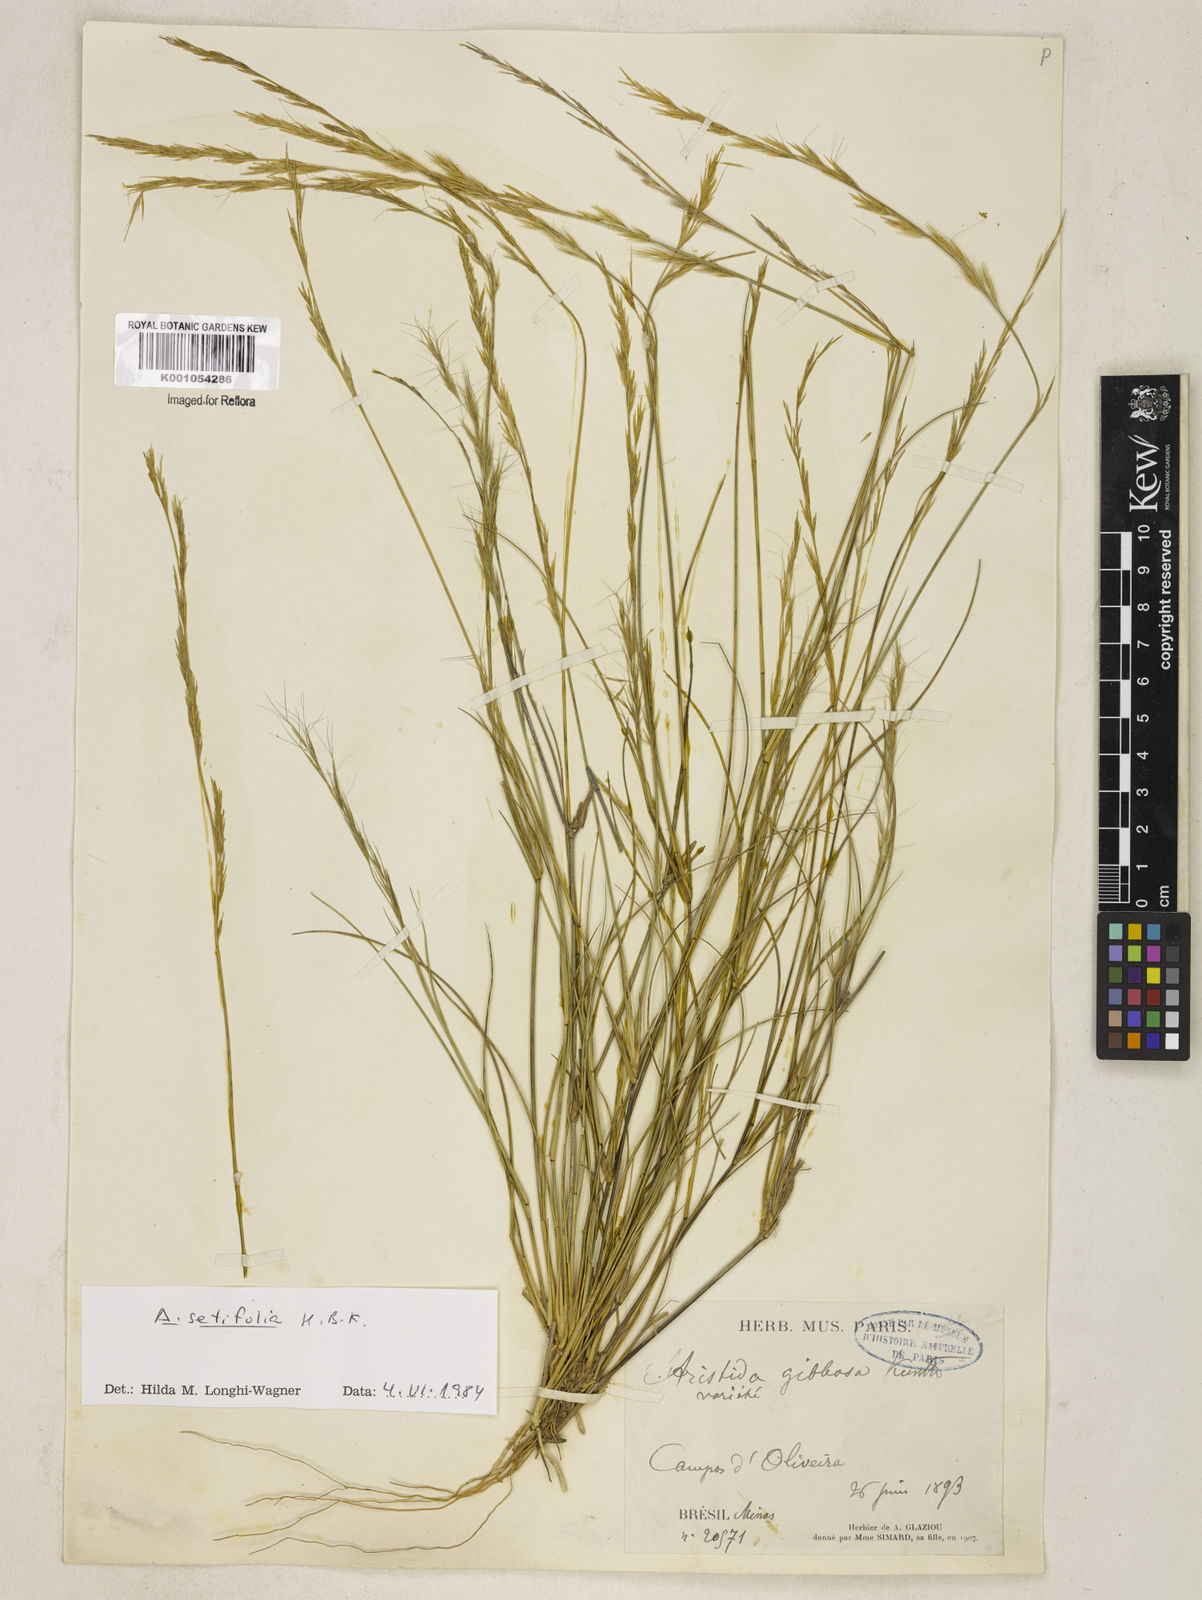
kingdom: Plantae
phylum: Tracheophyta
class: Liliopsida
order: Poales
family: Poaceae
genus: Aristida
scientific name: Aristida setifolia
